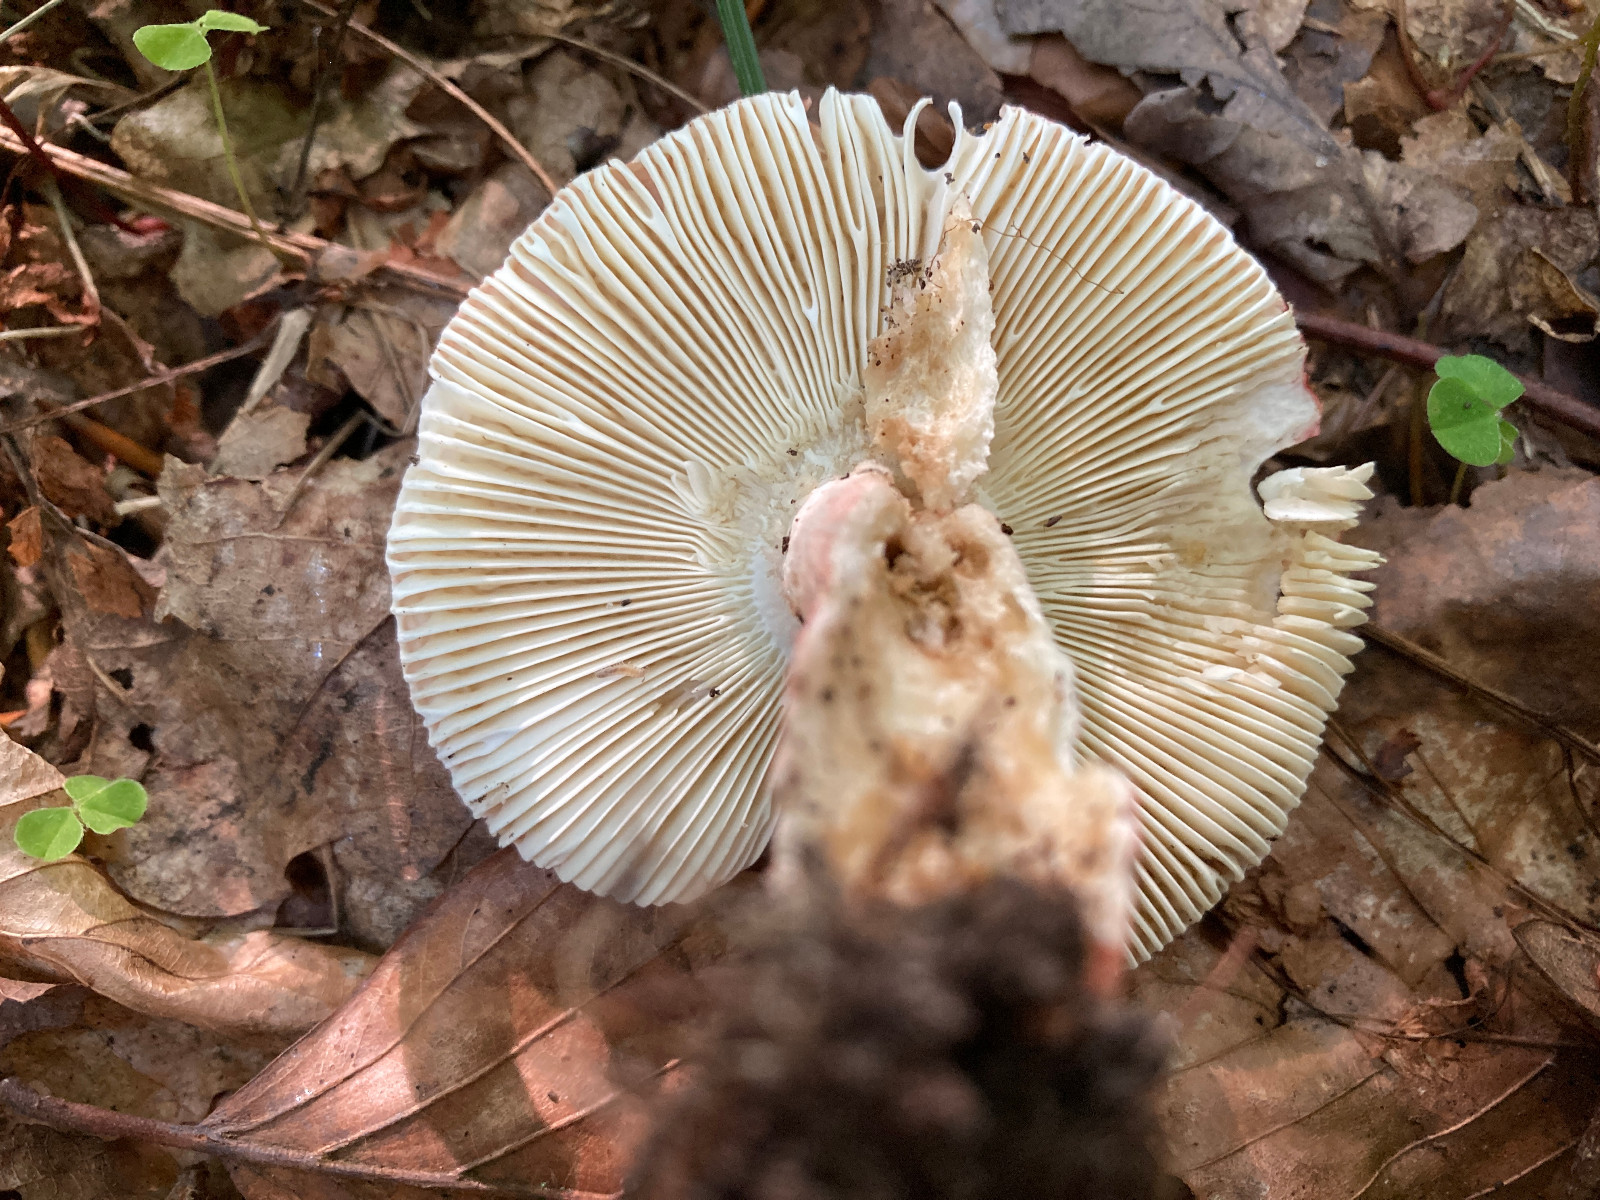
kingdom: Fungi
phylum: Basidiomycota
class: Agaricomycetes
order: Russulales
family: Russulaceae
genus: Russula
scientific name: Russula rosea
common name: fastkødet skørhat
